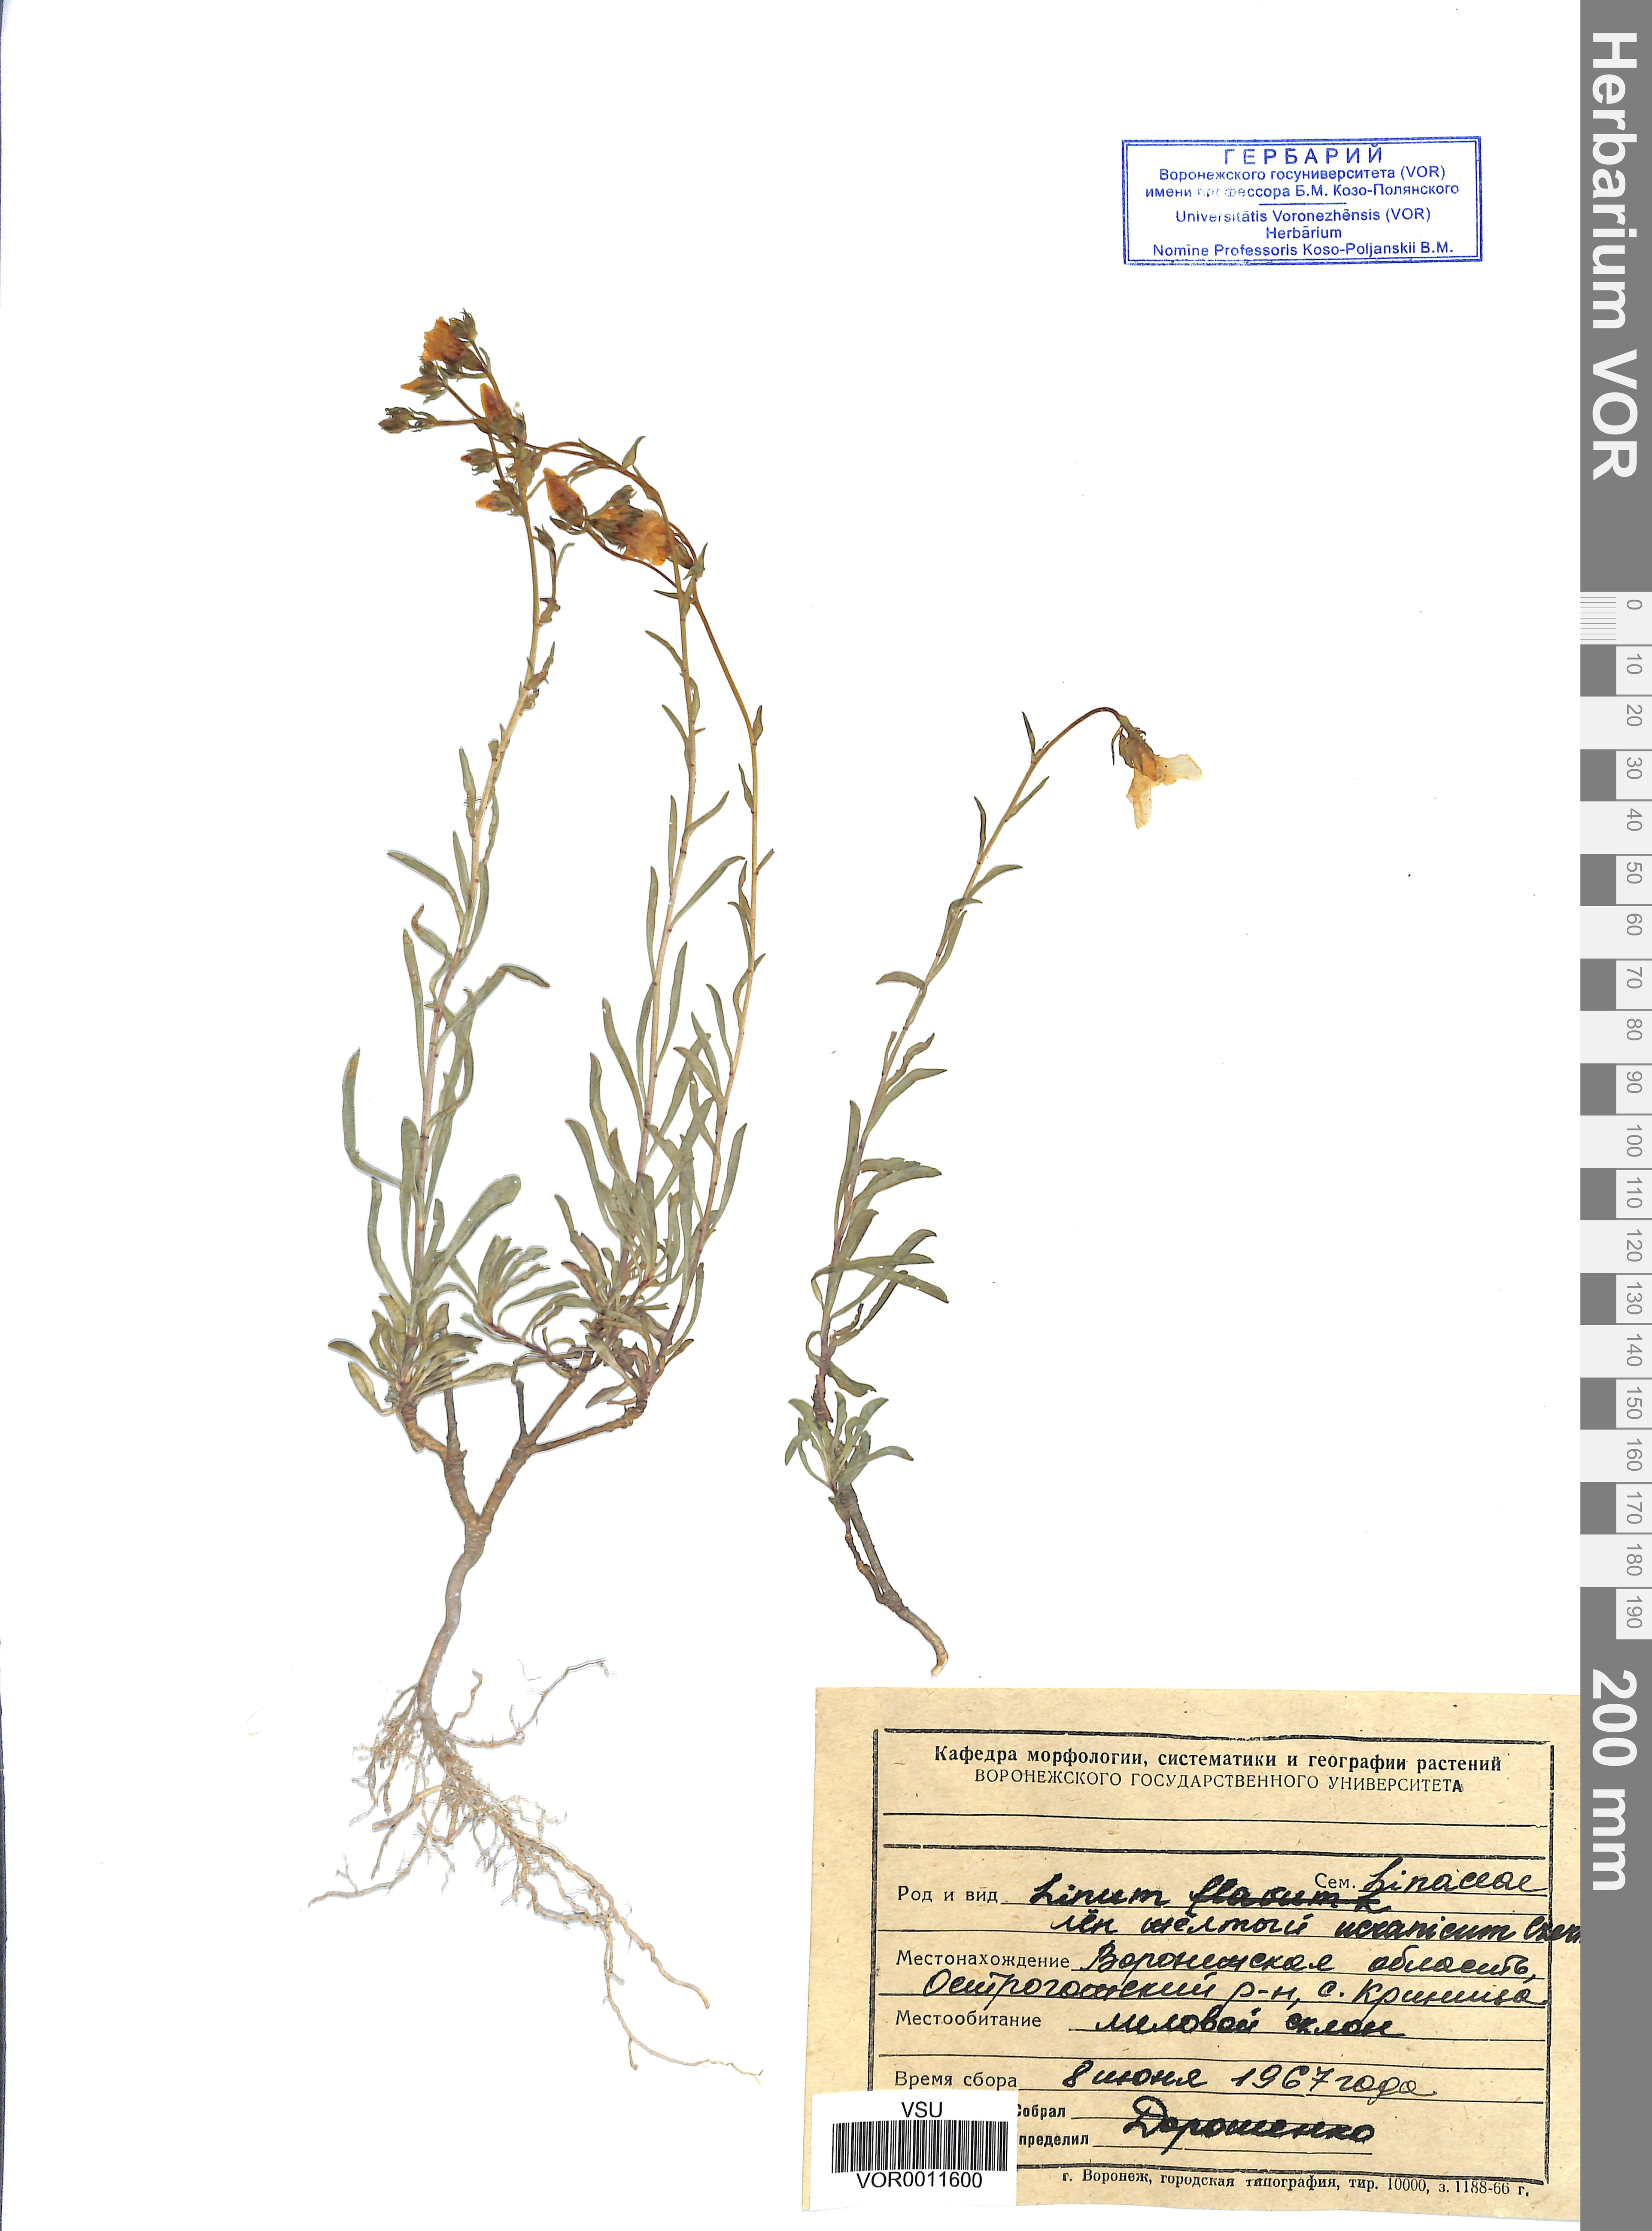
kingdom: Plantae
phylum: Tracheophyta
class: Magnoliopsida
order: Malpighiales
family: Linaceae
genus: Linum
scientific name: Linum ucranicum
